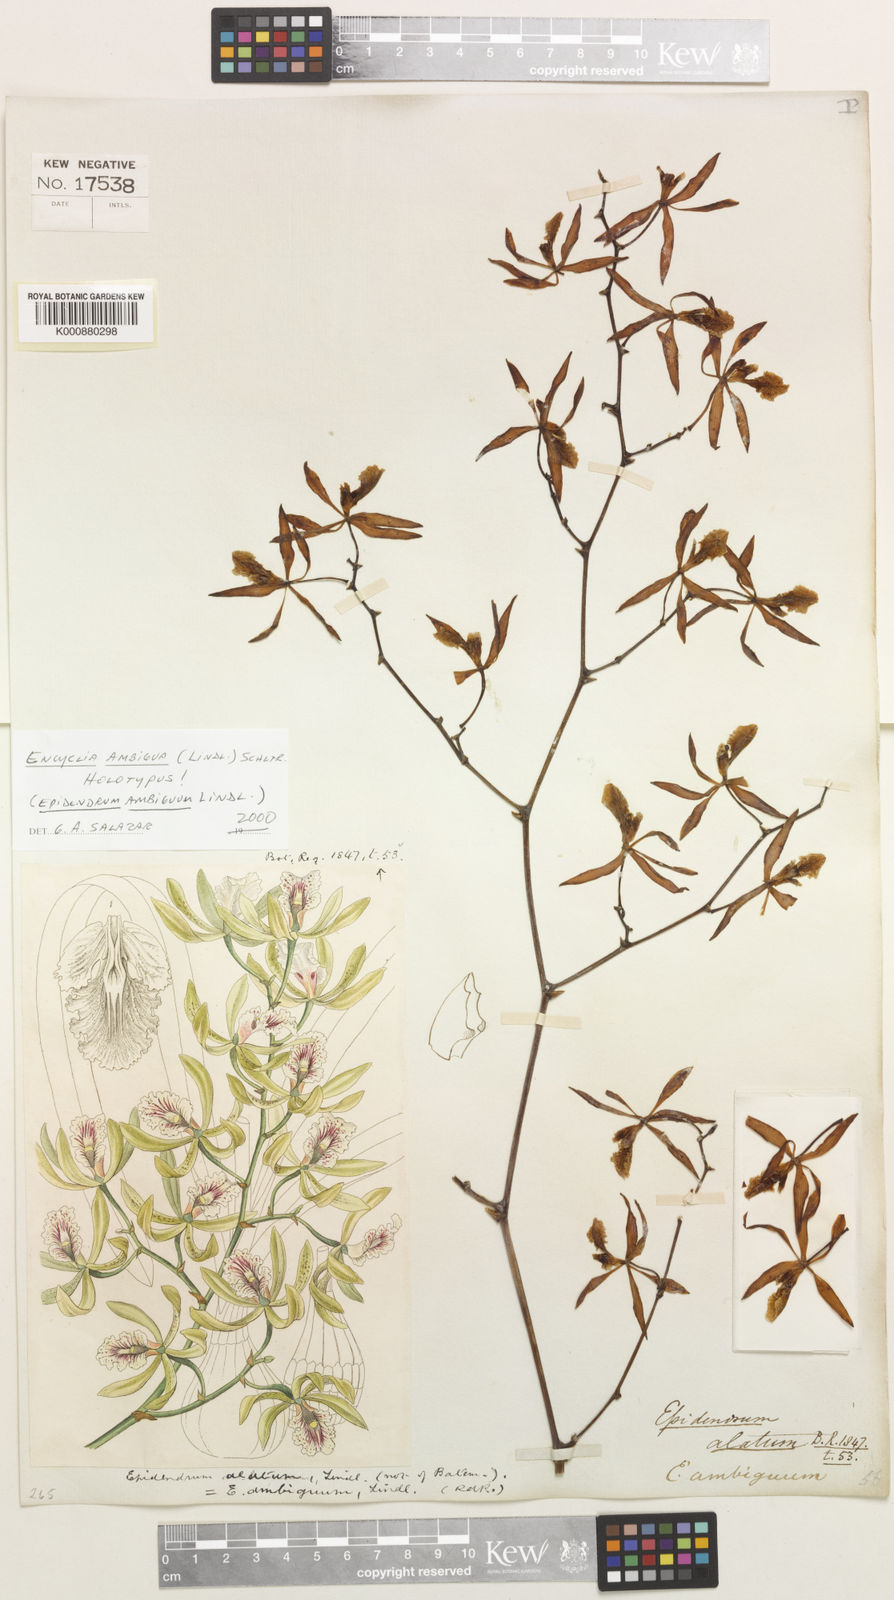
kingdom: Plantae
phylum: Tracheophyta
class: Liliopsida
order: Asparagales
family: Orchidaceae
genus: Encyclia
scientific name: Encyclia ambigua
